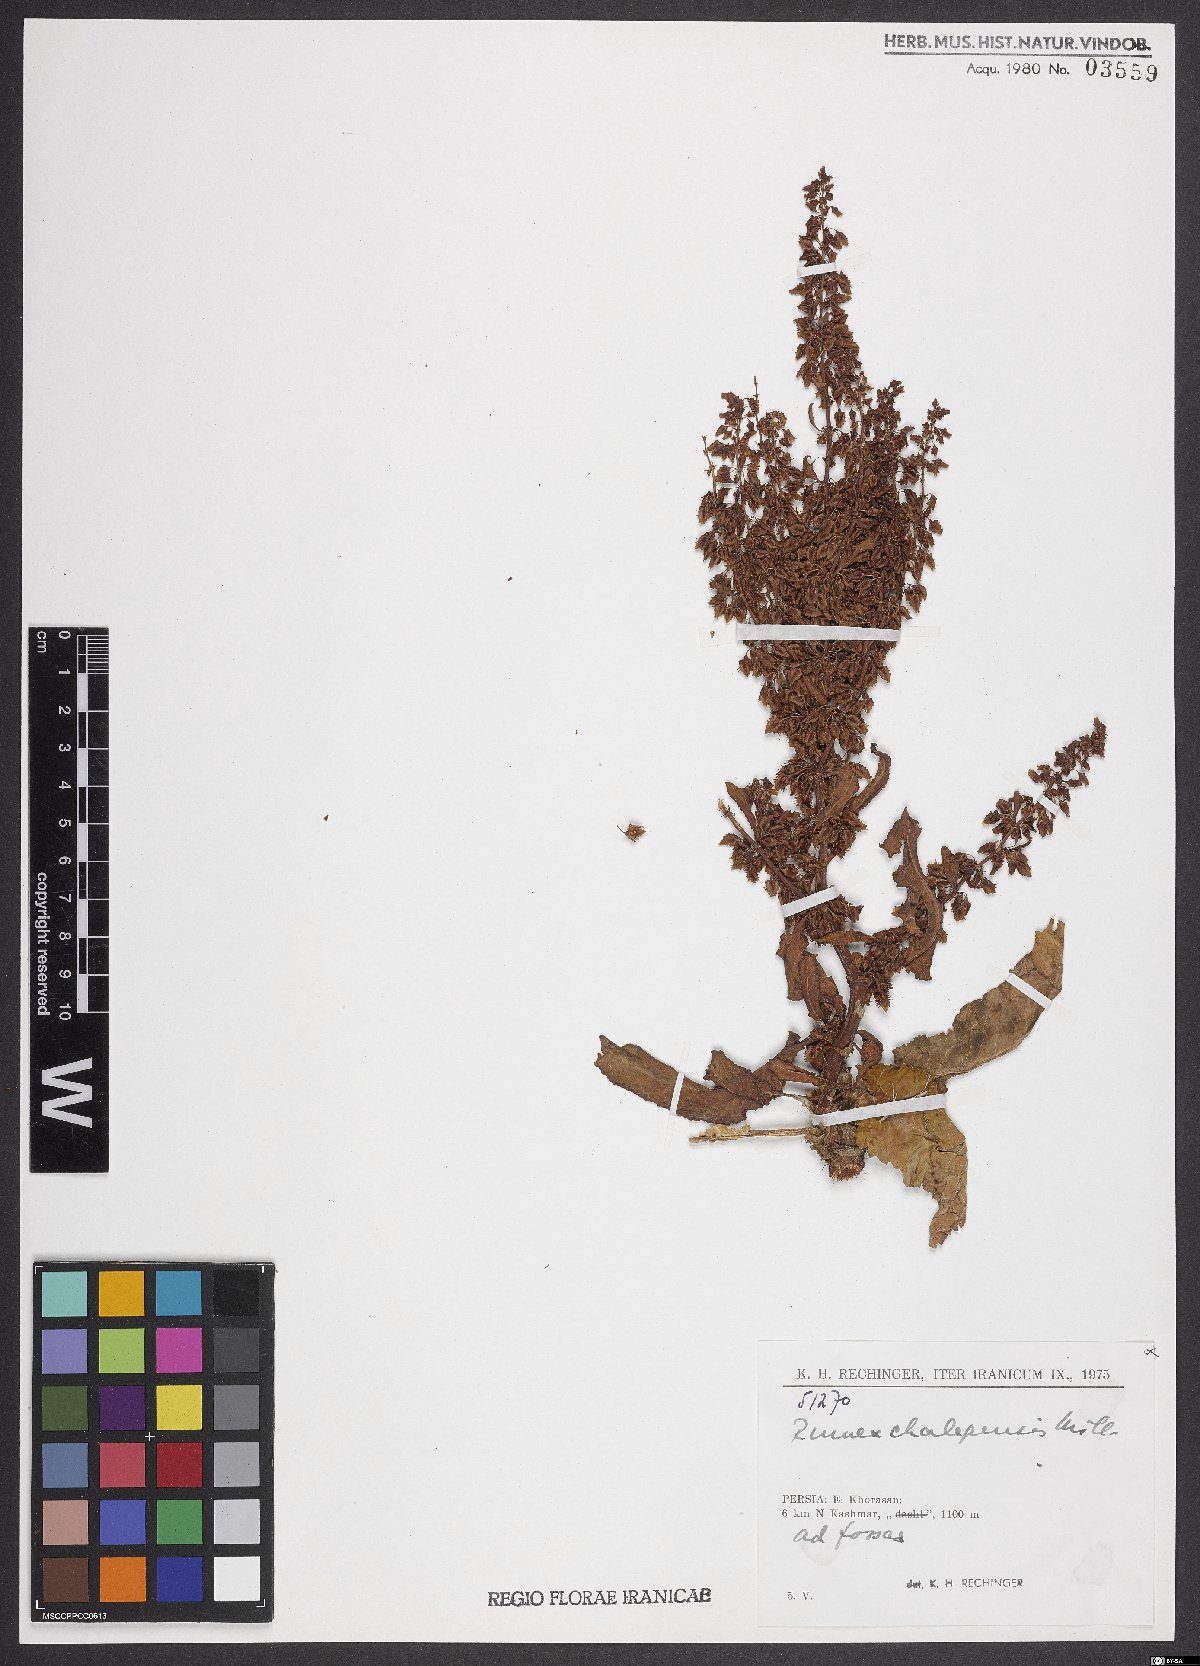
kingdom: Plantae
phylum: Tracheophyta
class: Magnoliopsida
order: Caryophyllales
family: Polygonaceae
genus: Rumex
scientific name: Rumex chalepensis
